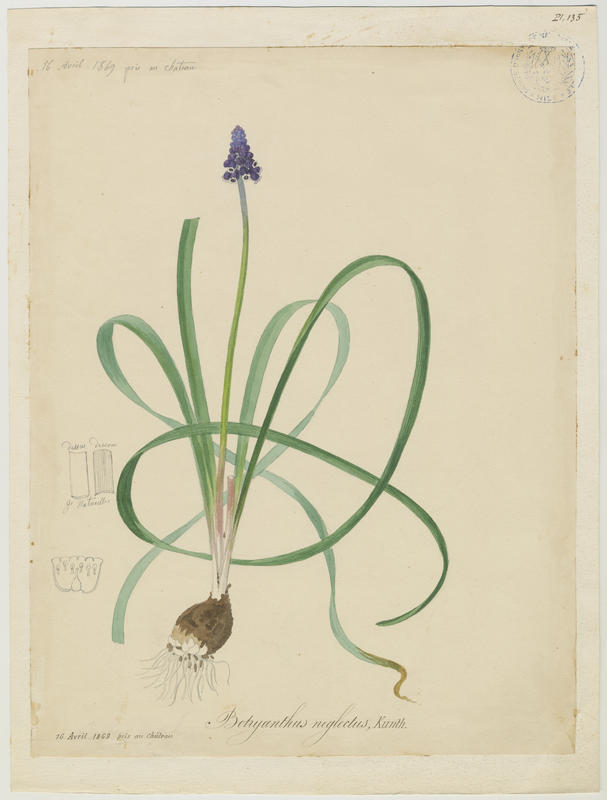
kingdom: Plantae
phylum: Tracheophyta
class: Liliopsida
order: Asparagales
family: Asparagaceae
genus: Muscari
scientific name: Muscari neglectum
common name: Grape-hyacinth
